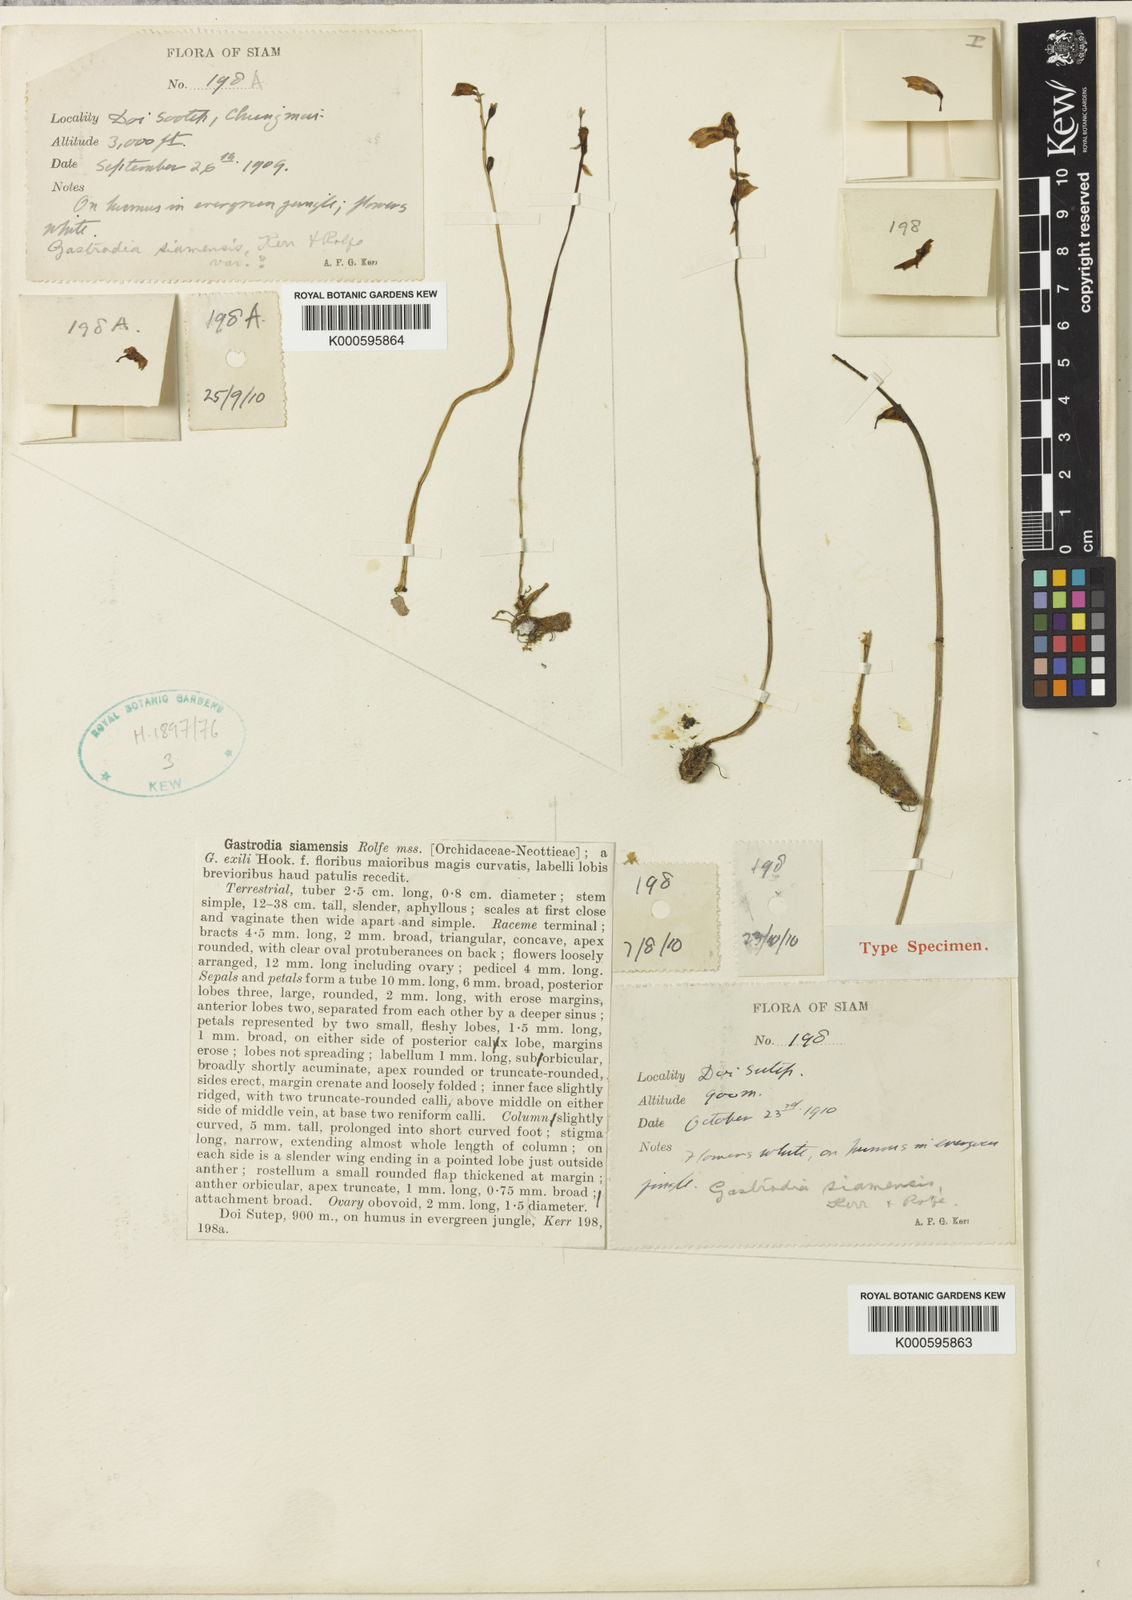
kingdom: Plantae
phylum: Tracheophyta
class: Liliopsida
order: Asparagales
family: Orchidaceae
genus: Gastrodia
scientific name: Gastrodia exilis
